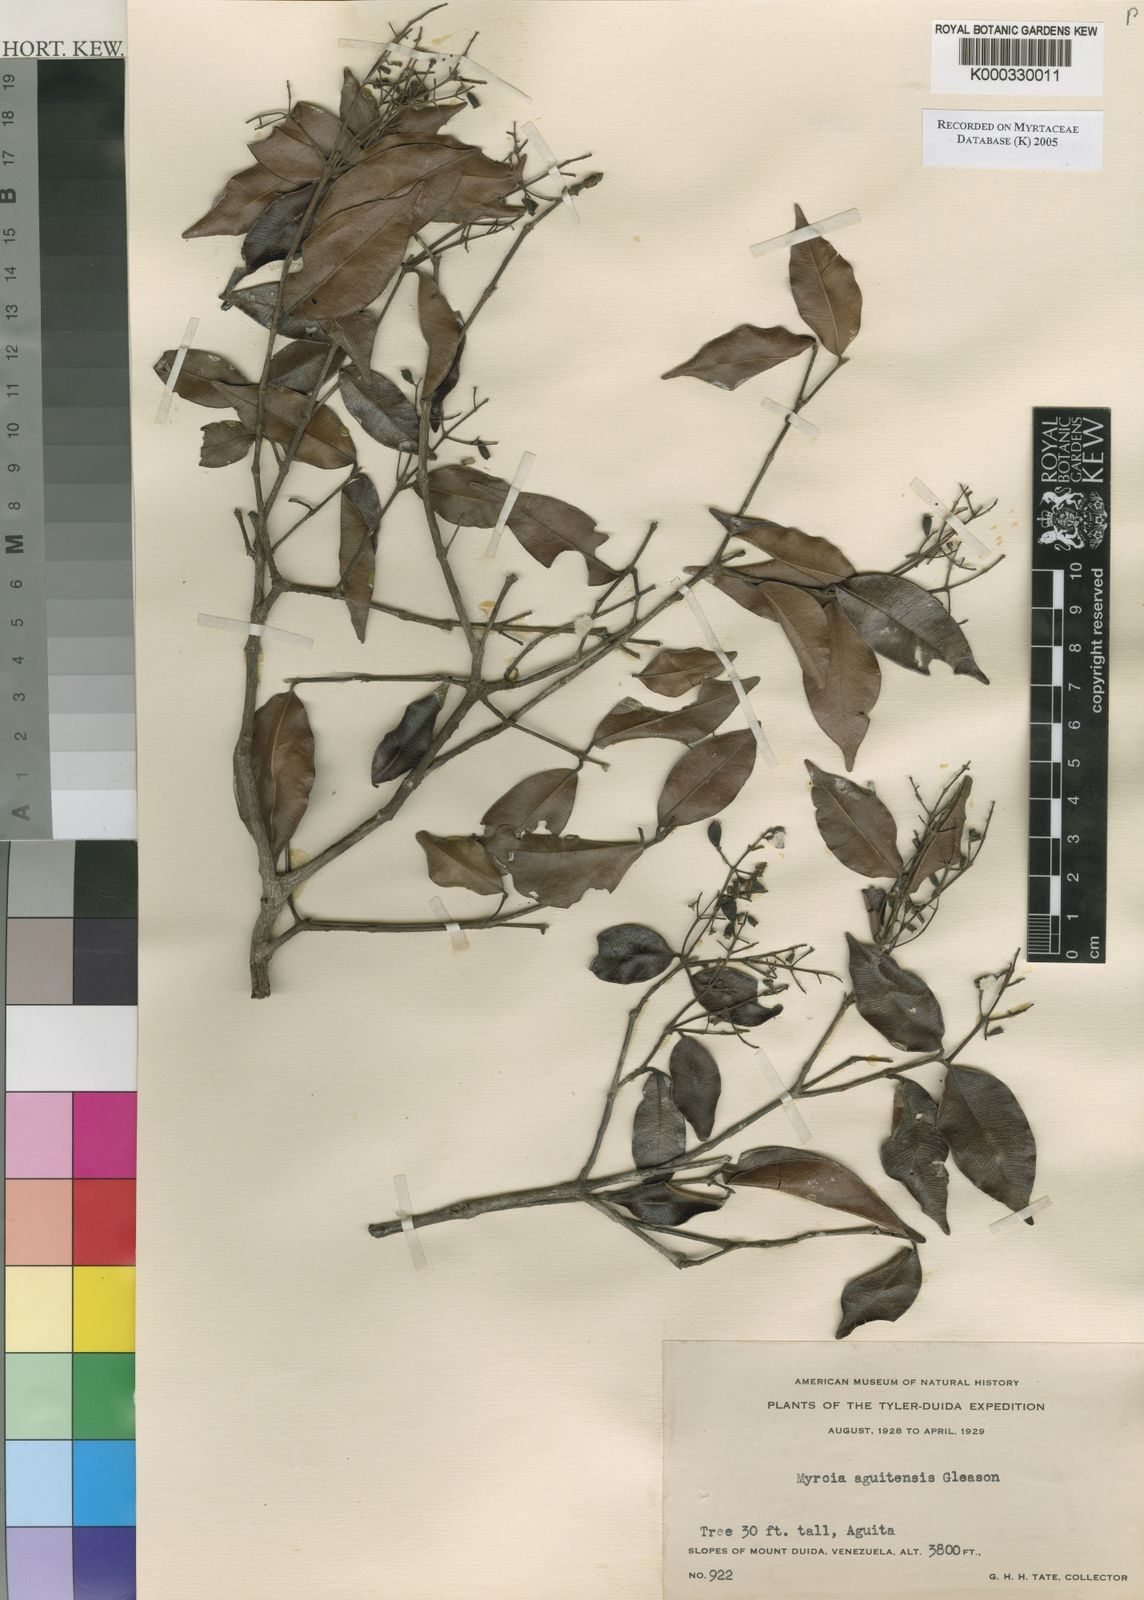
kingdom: Plantae
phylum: Tracheophyta
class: Magnoliopsida
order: Myrtales
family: Myrtaceae
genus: Myrcia
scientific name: Myrcia splendens
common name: Surinam cherry
